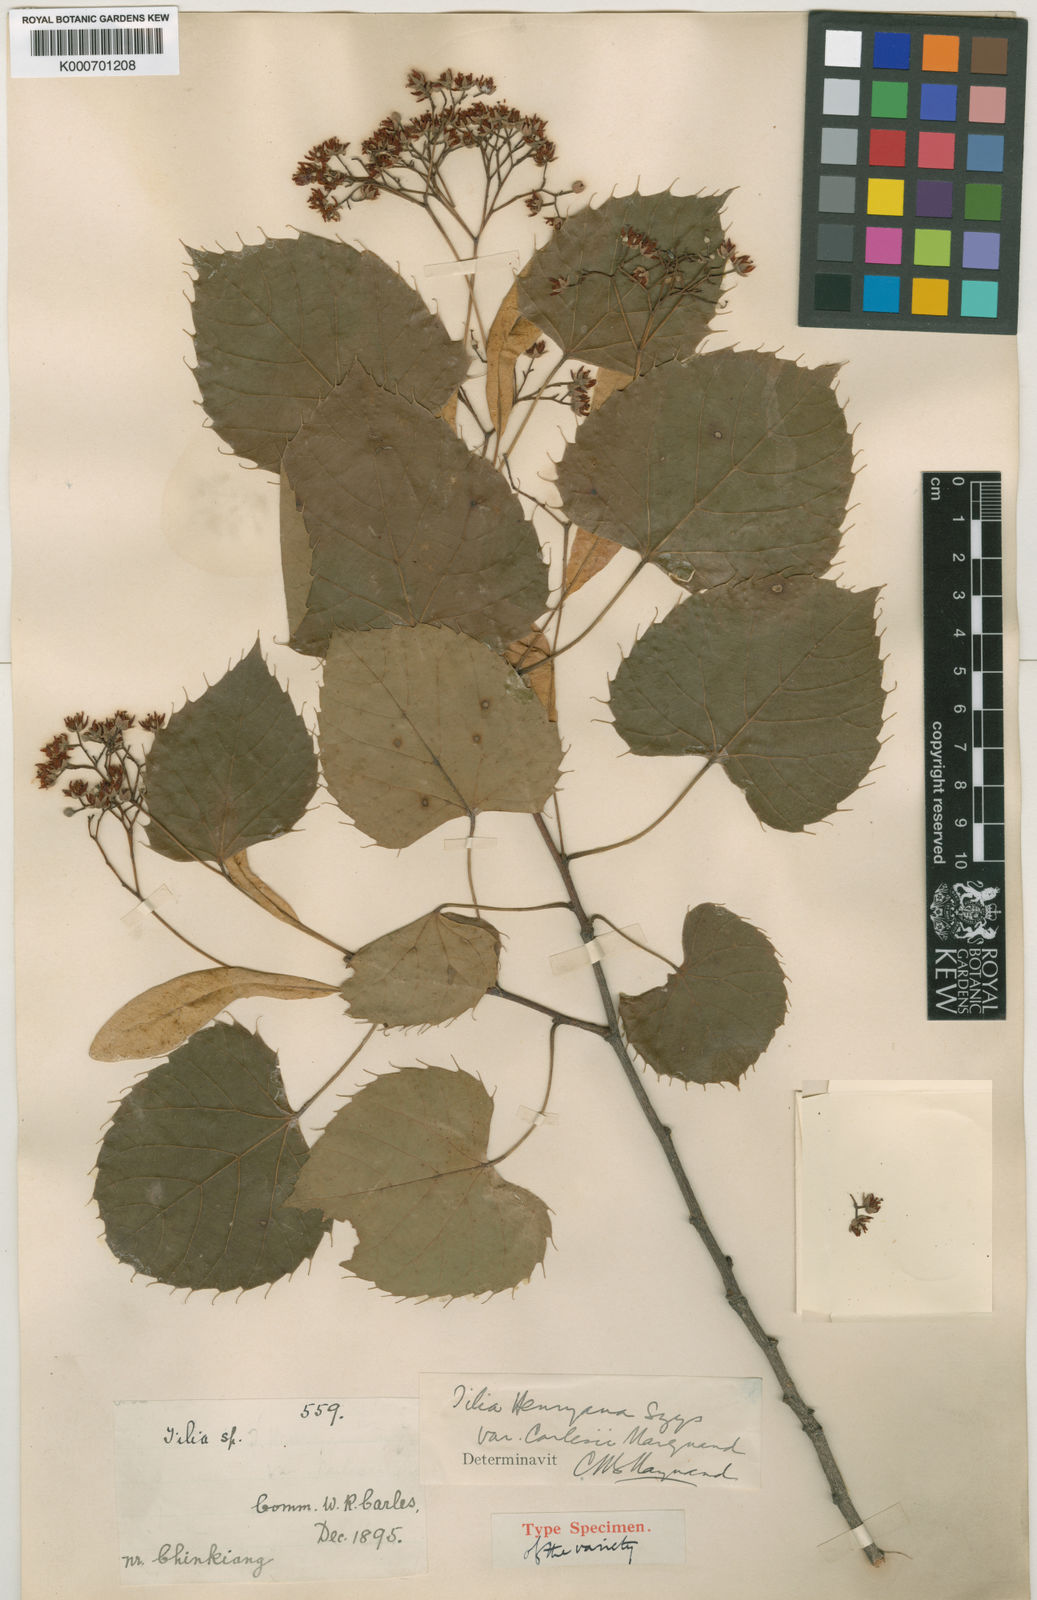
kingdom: Plantae
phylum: Tracheophyta
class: Magnoliopsida
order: Malvales
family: Malvaceae
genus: Tilia
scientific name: Tilia henryana
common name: Henry's lime
